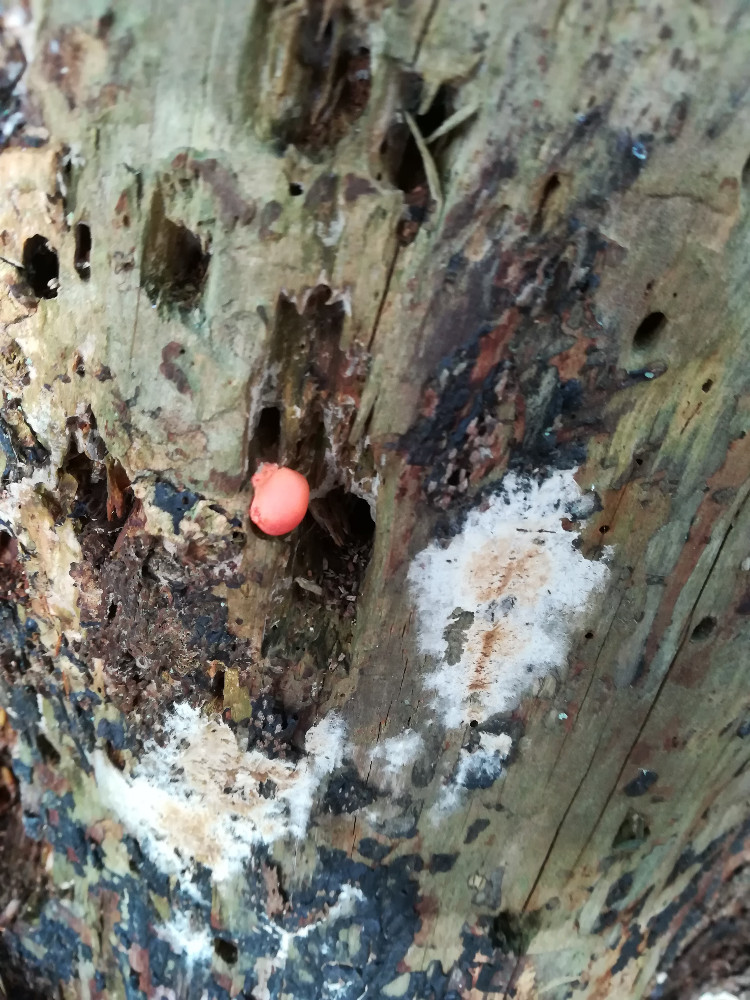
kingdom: Protozoa
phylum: Mycetozoa
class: Myxomycetes
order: Cribrariales
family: Tubiferaceae
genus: Lycogala
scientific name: Lycogala epidendrum
